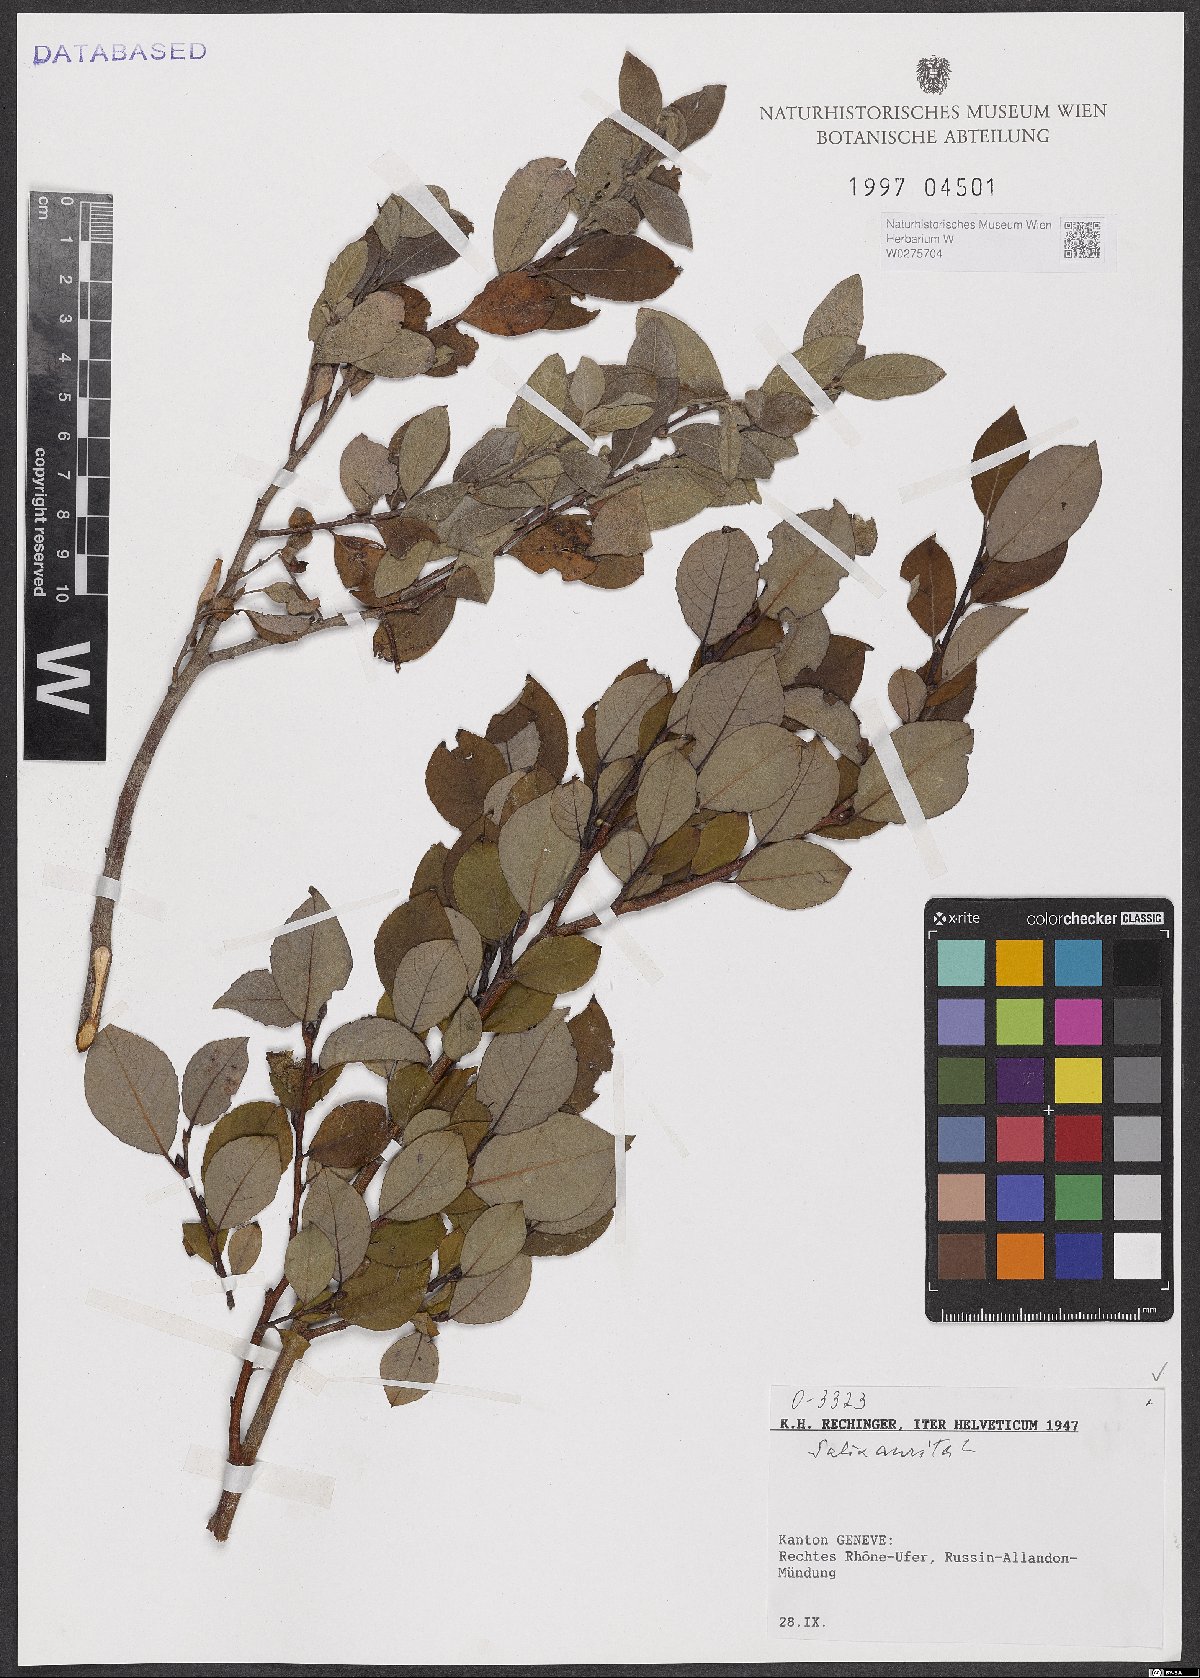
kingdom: Plantae
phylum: Tracheophyta
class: Magnoliopsida
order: Malpighiales
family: Salicaceae
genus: Salix
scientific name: Salix aurita
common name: Eared willow
